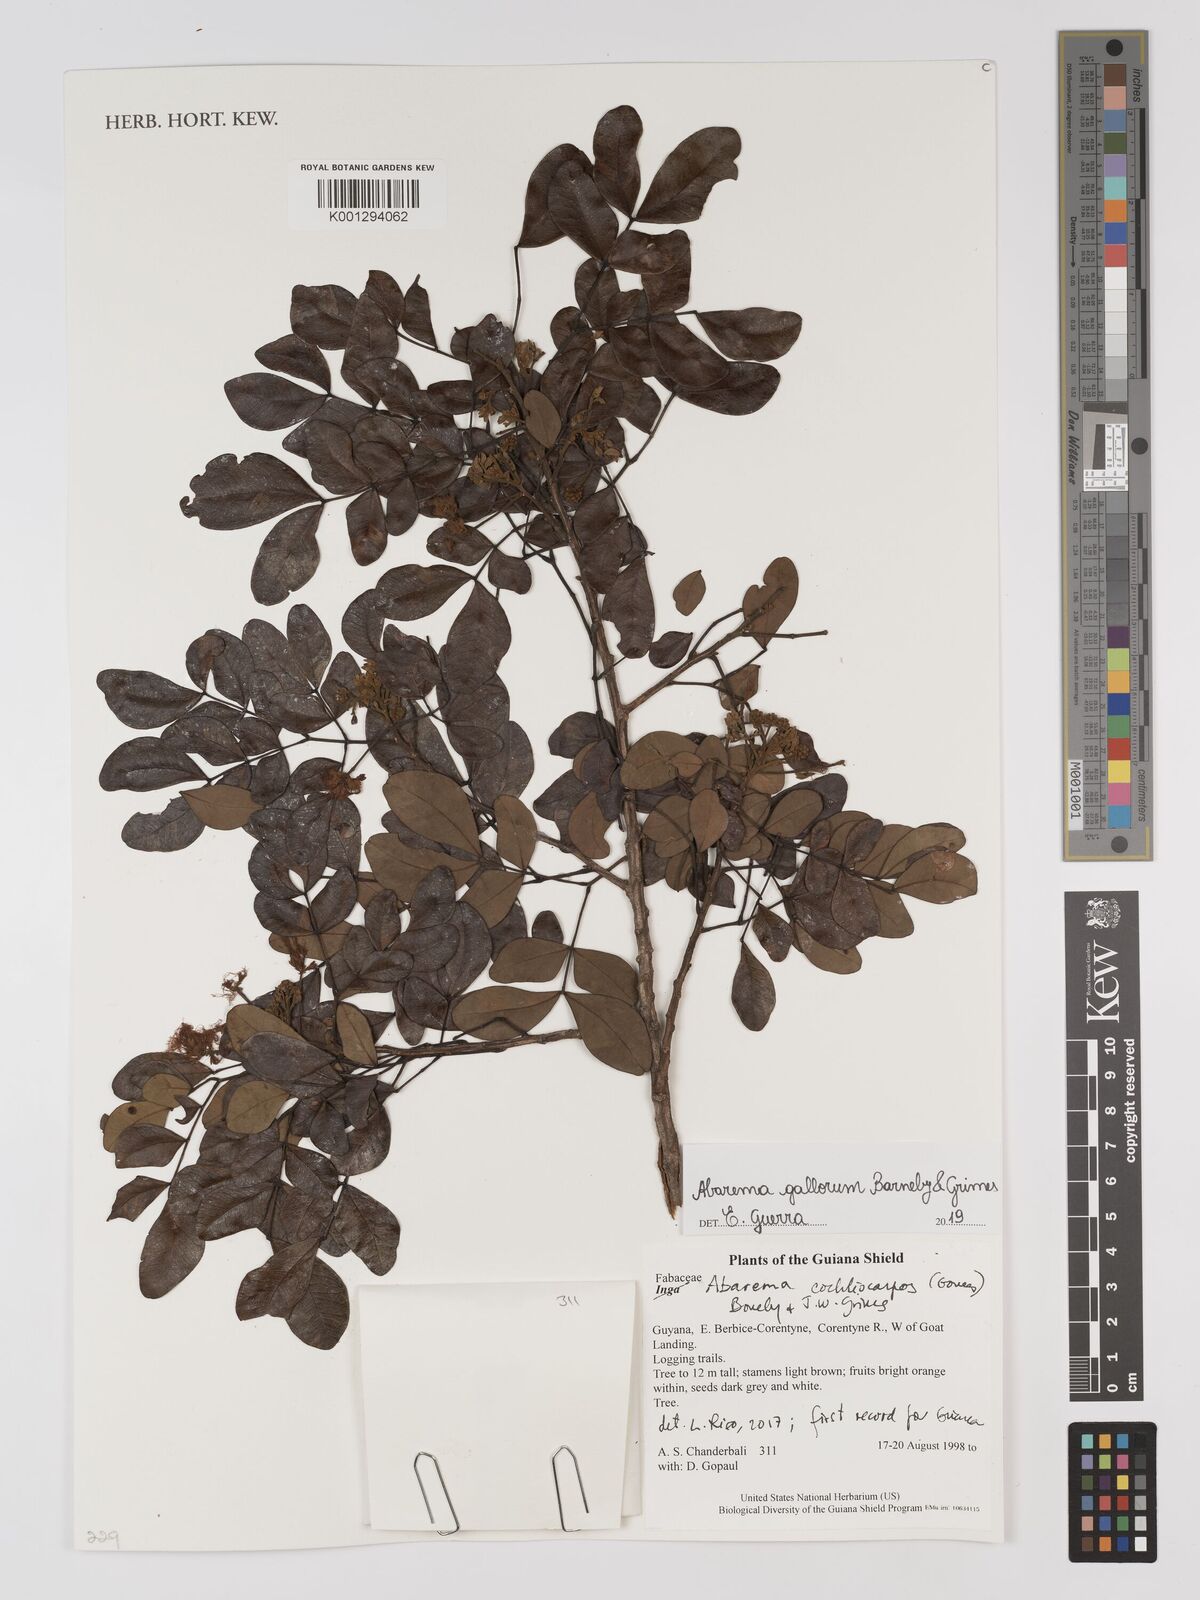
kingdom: Plantae
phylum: Tracheophyta
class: Magnoliopsida
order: Fabales
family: Fabaceae
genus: Abarema
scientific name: Abarema cochliacarpos
